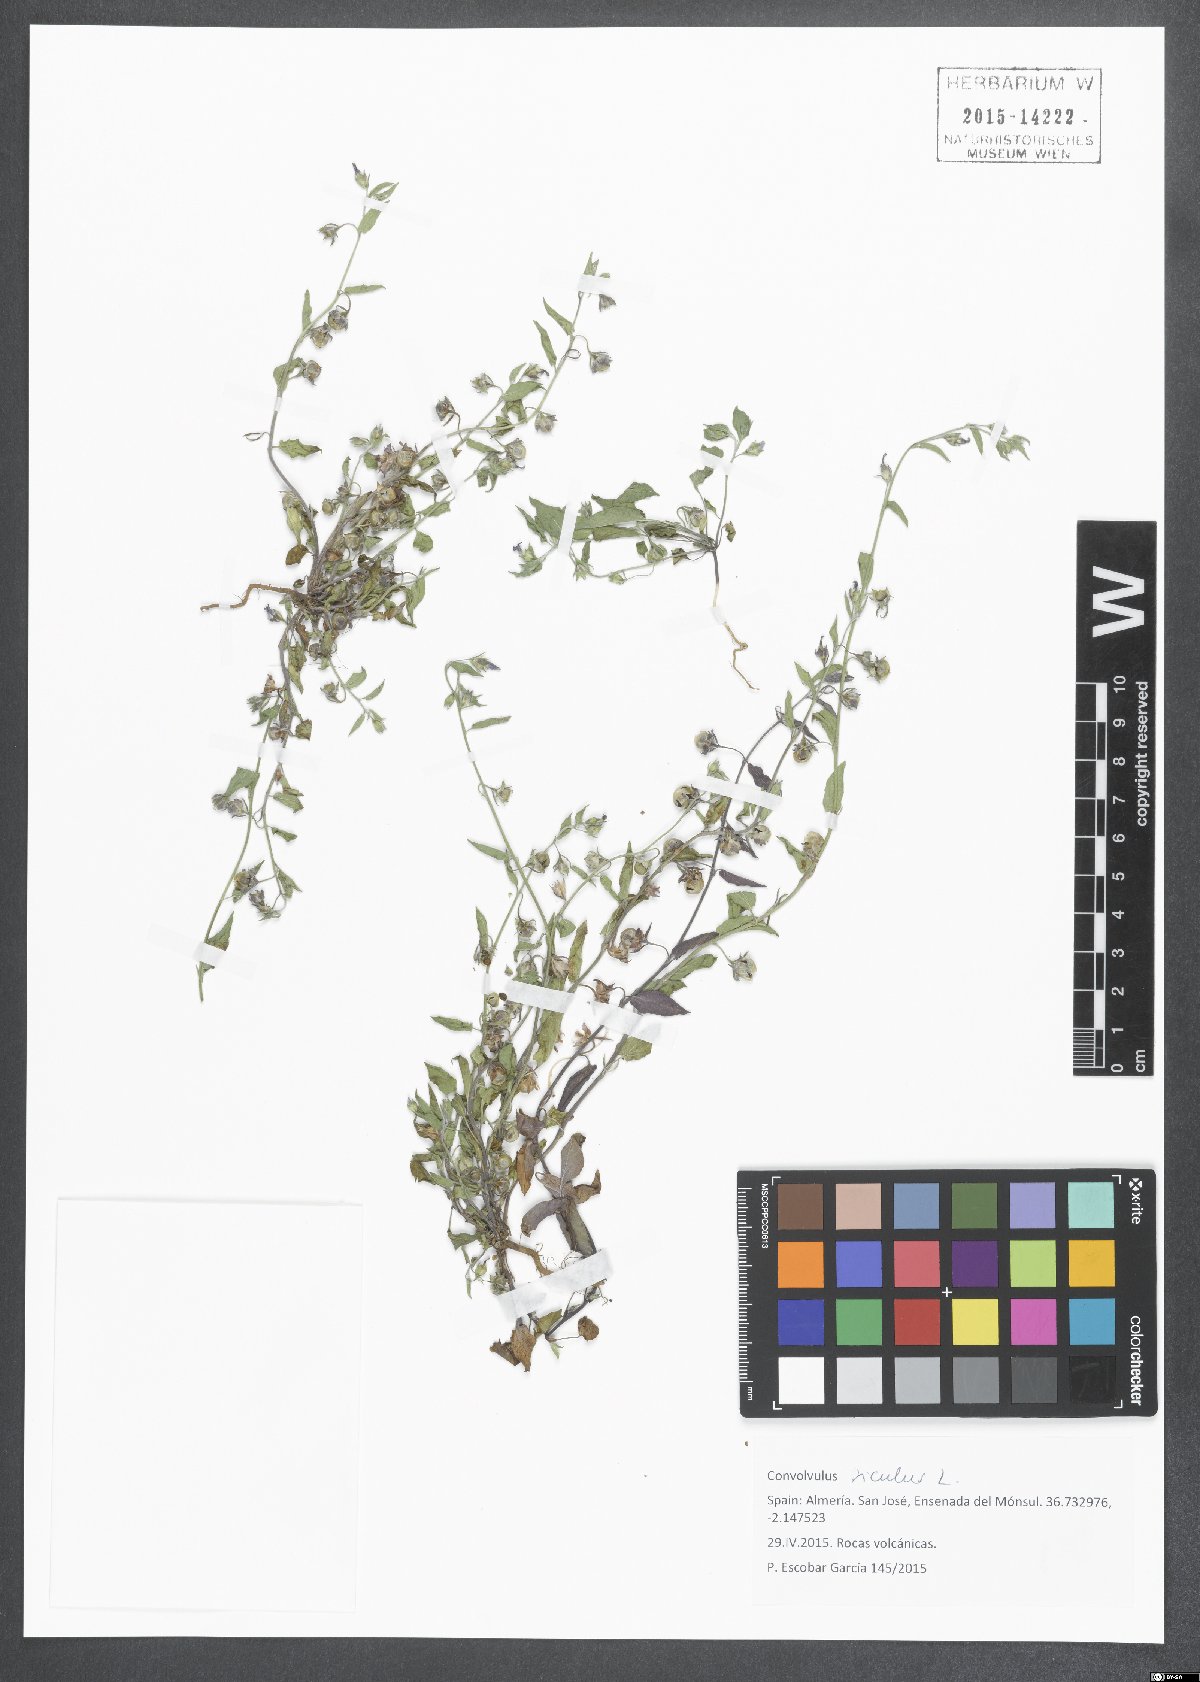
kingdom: Plantae
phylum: Tracheophyta
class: Magnoliopsida
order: Solanales
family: Convolvulaceae
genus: Convolvulus
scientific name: Convolvulus siculus
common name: Small blue-convolvulus
